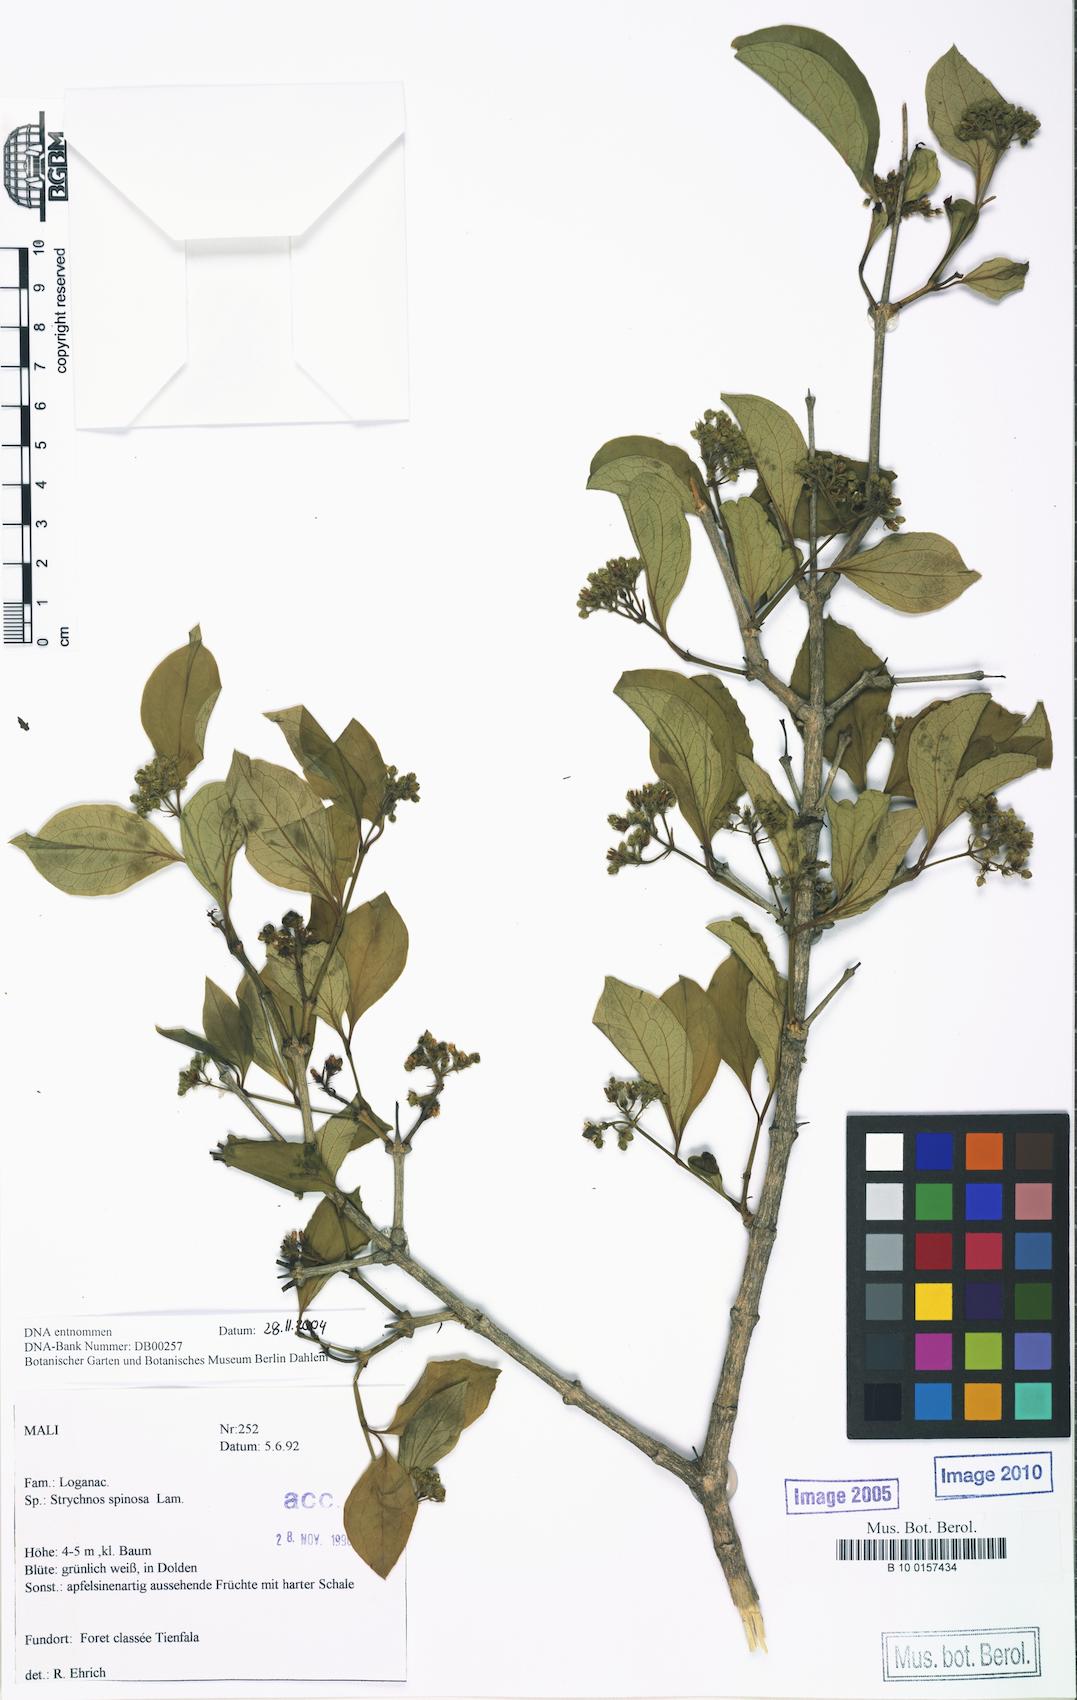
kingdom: Plantae
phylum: Tracheophyta
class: Magnoliopsida
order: Gentianales
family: Loganiaceae
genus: Strychnos
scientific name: Strychnos spinosa
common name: Natal orange
